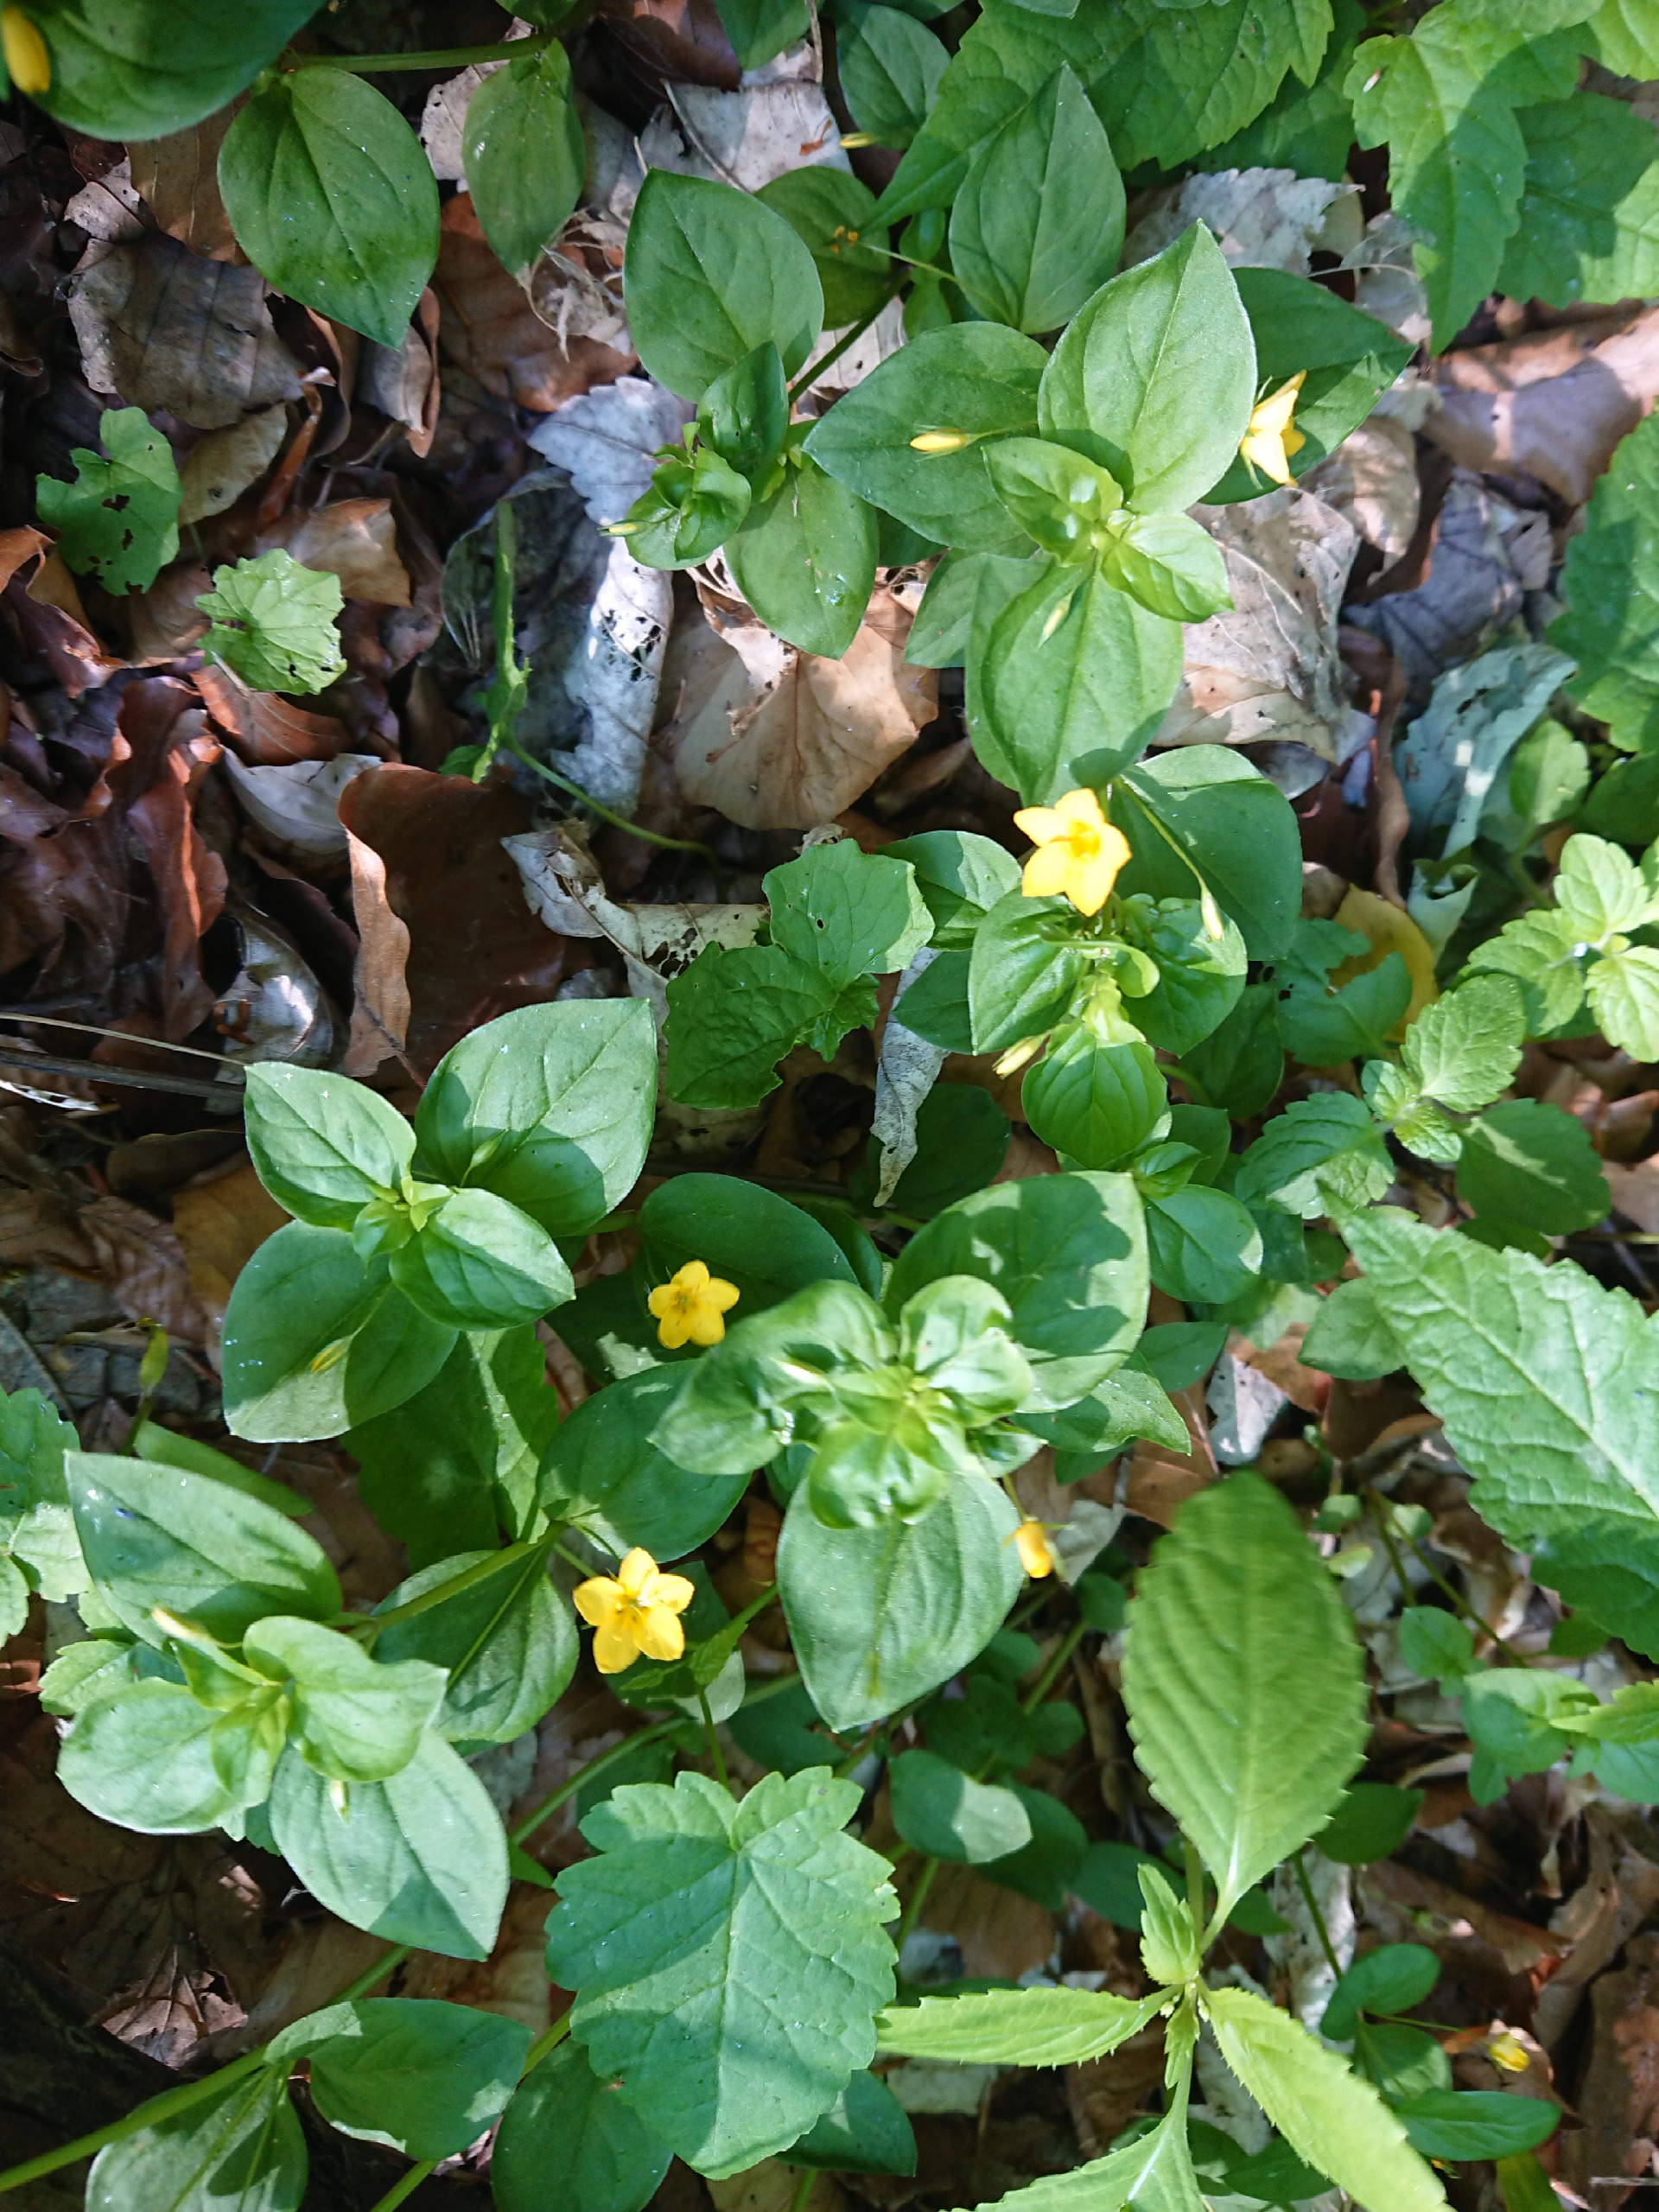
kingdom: Plantae
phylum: Tracheophyta
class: Magnoliopsida
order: Ericales
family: Primulaceae
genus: Lysimachia
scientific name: Lysimachia nemorum
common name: Lund-fredløs
